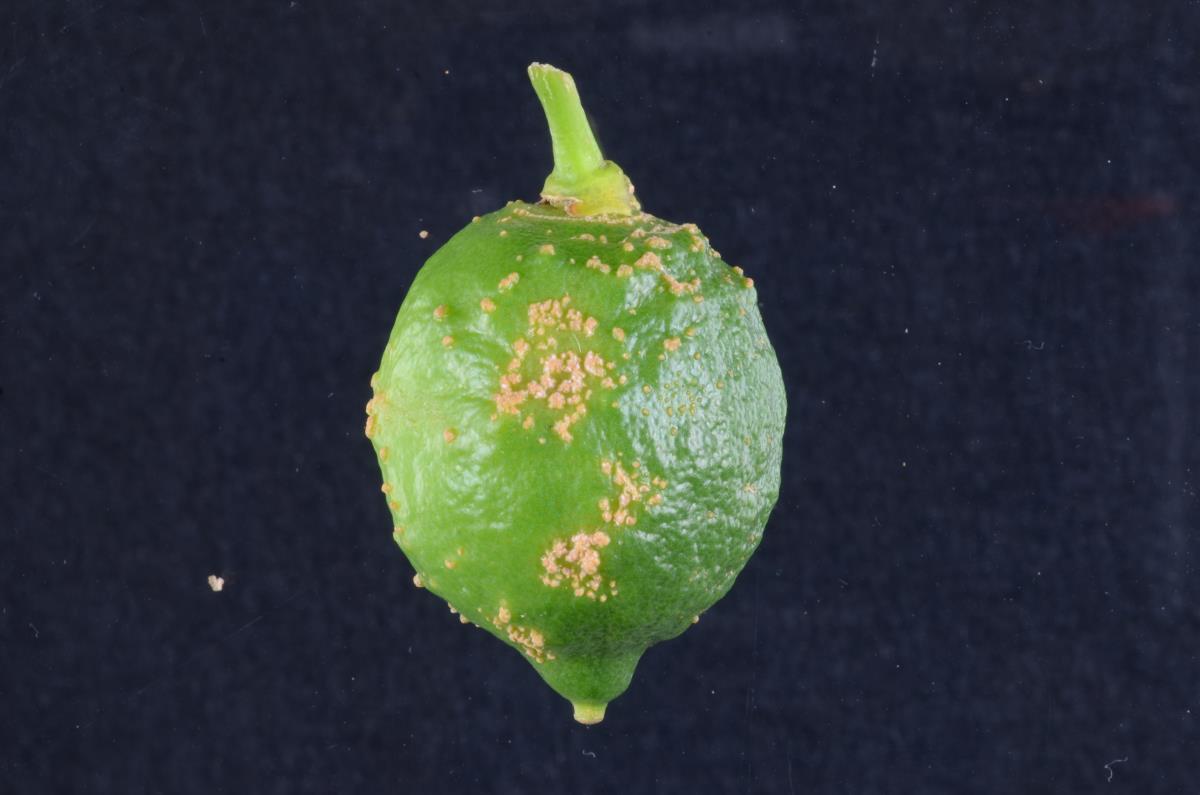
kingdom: Fungi
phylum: Ascomycota
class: Dothideomycetes
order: Myriangiales
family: Elsinoaceae
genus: Elsinoe
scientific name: Elsinoe fawcettii
